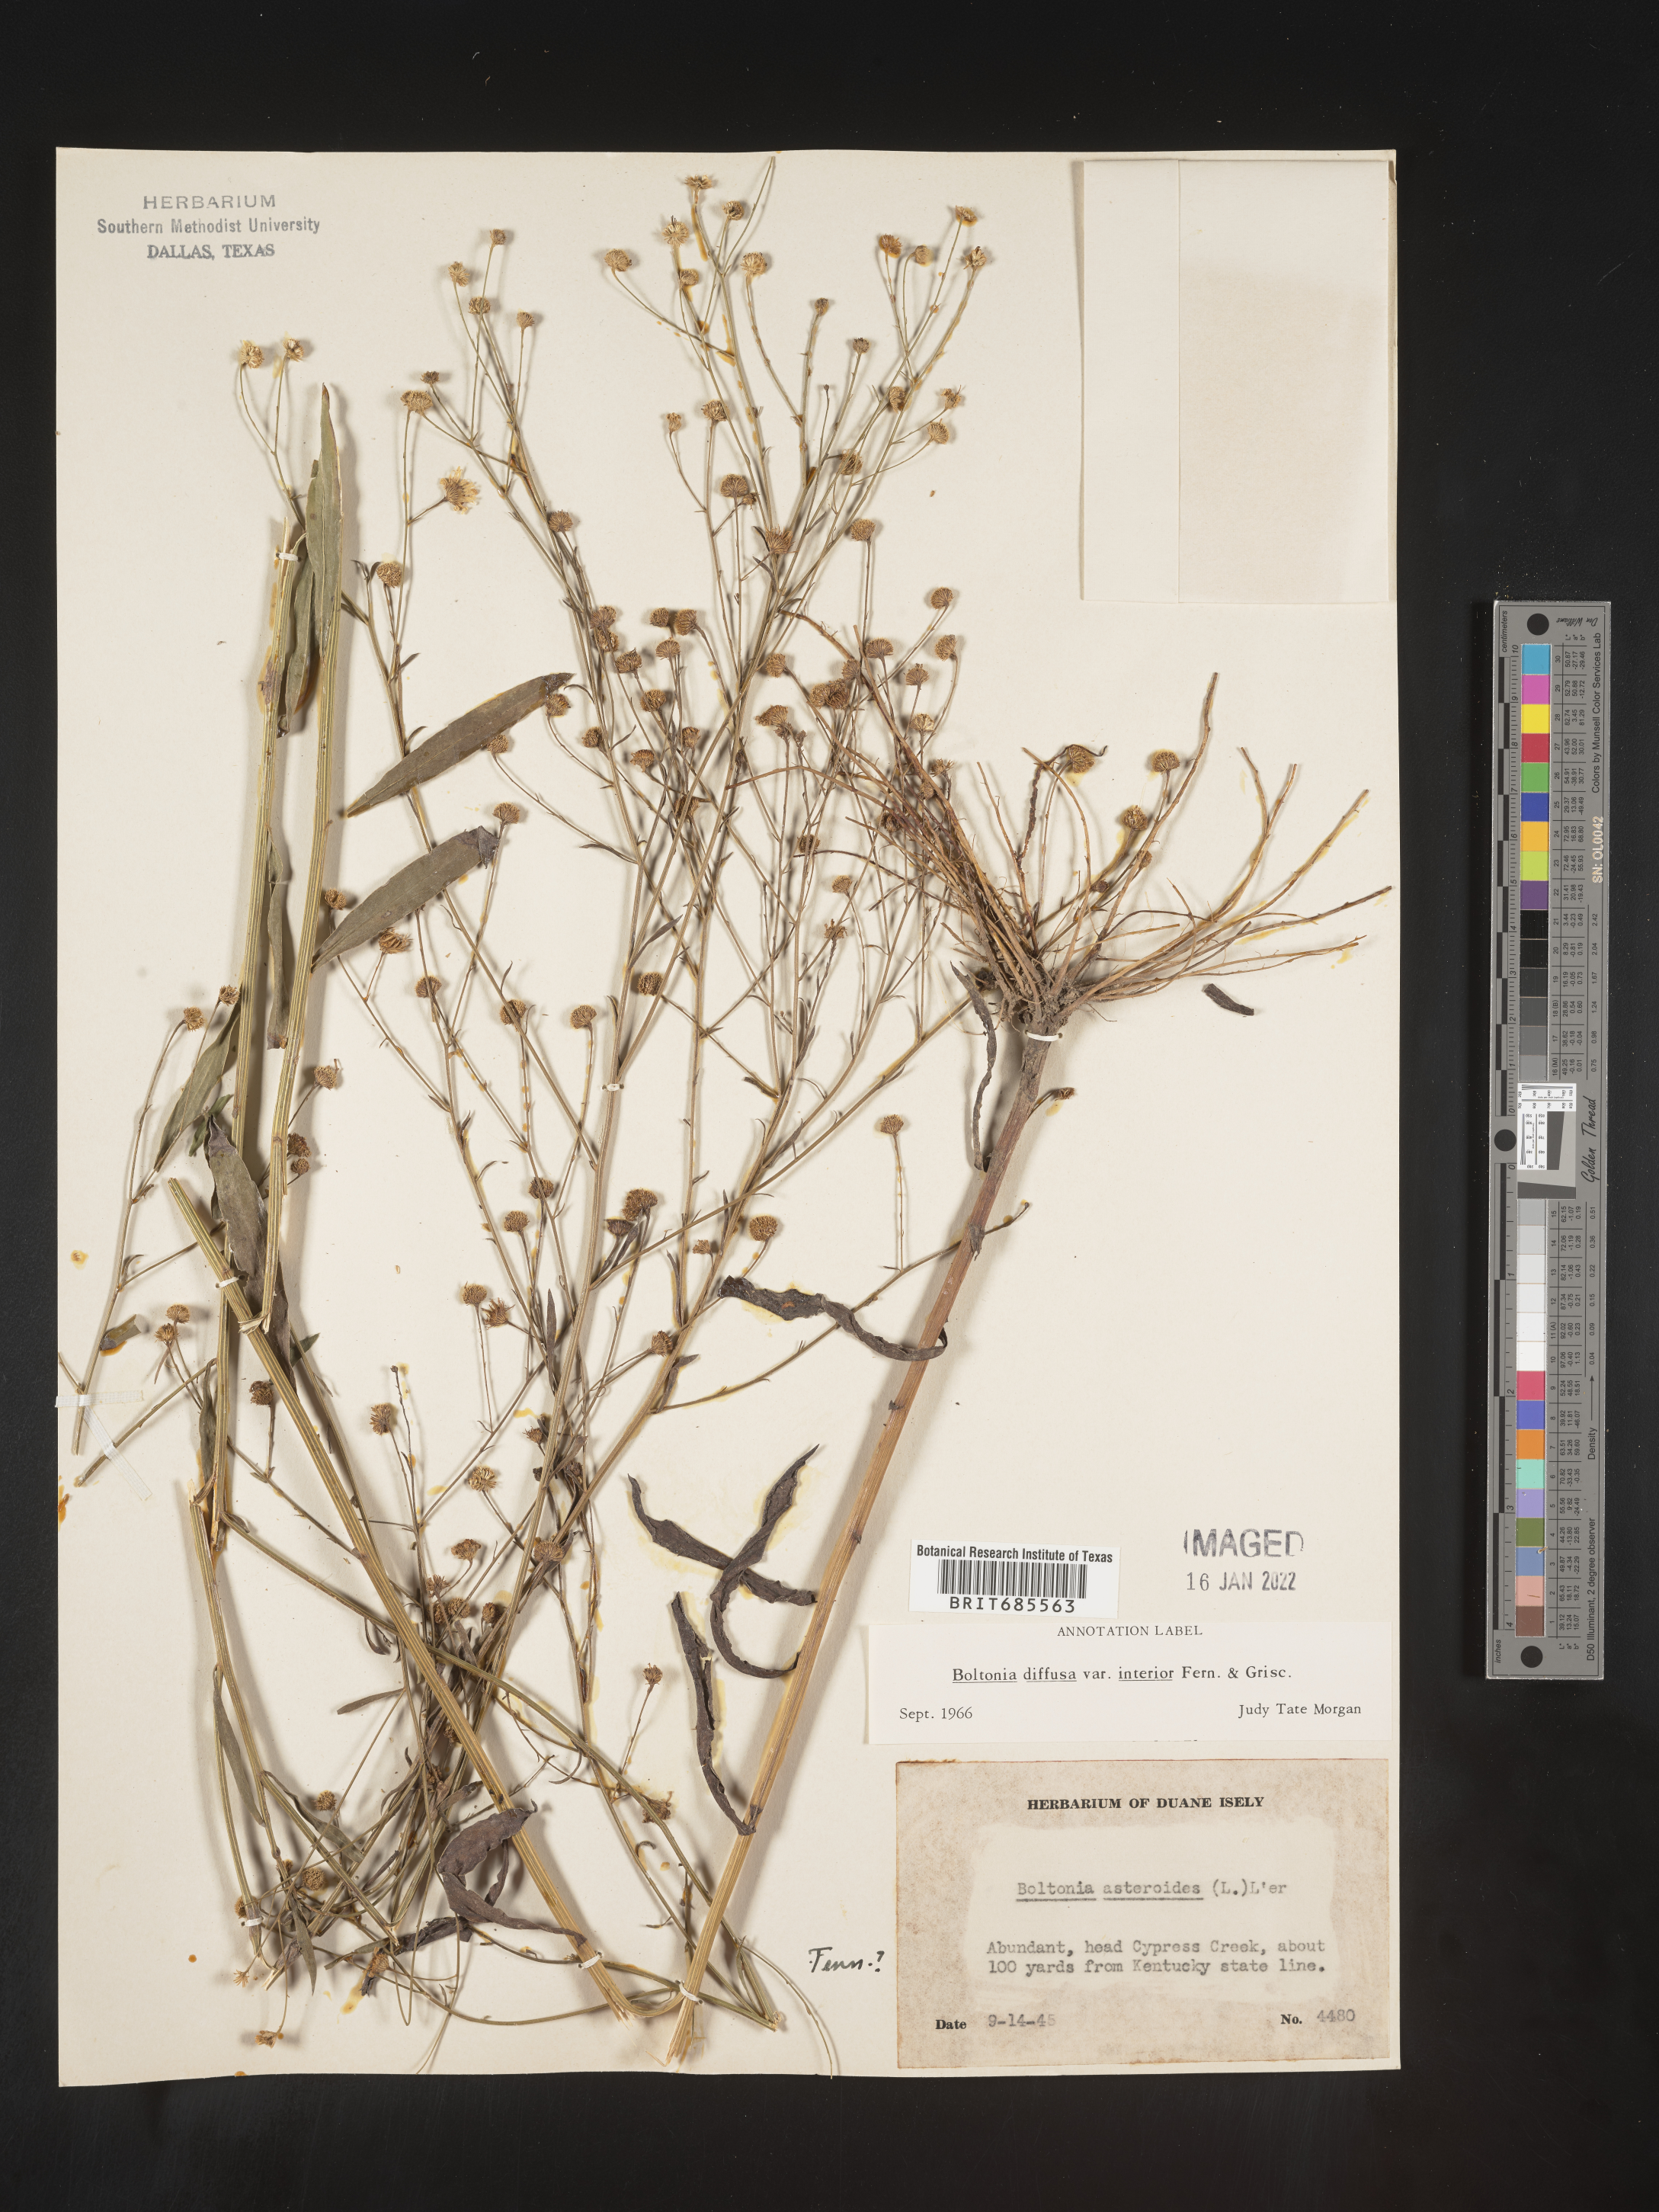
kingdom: Plantae
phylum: Tracheophyta
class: Magnoliopsida
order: Asterales
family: Asteraceae
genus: Boltonia
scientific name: Boltonia diffusa
